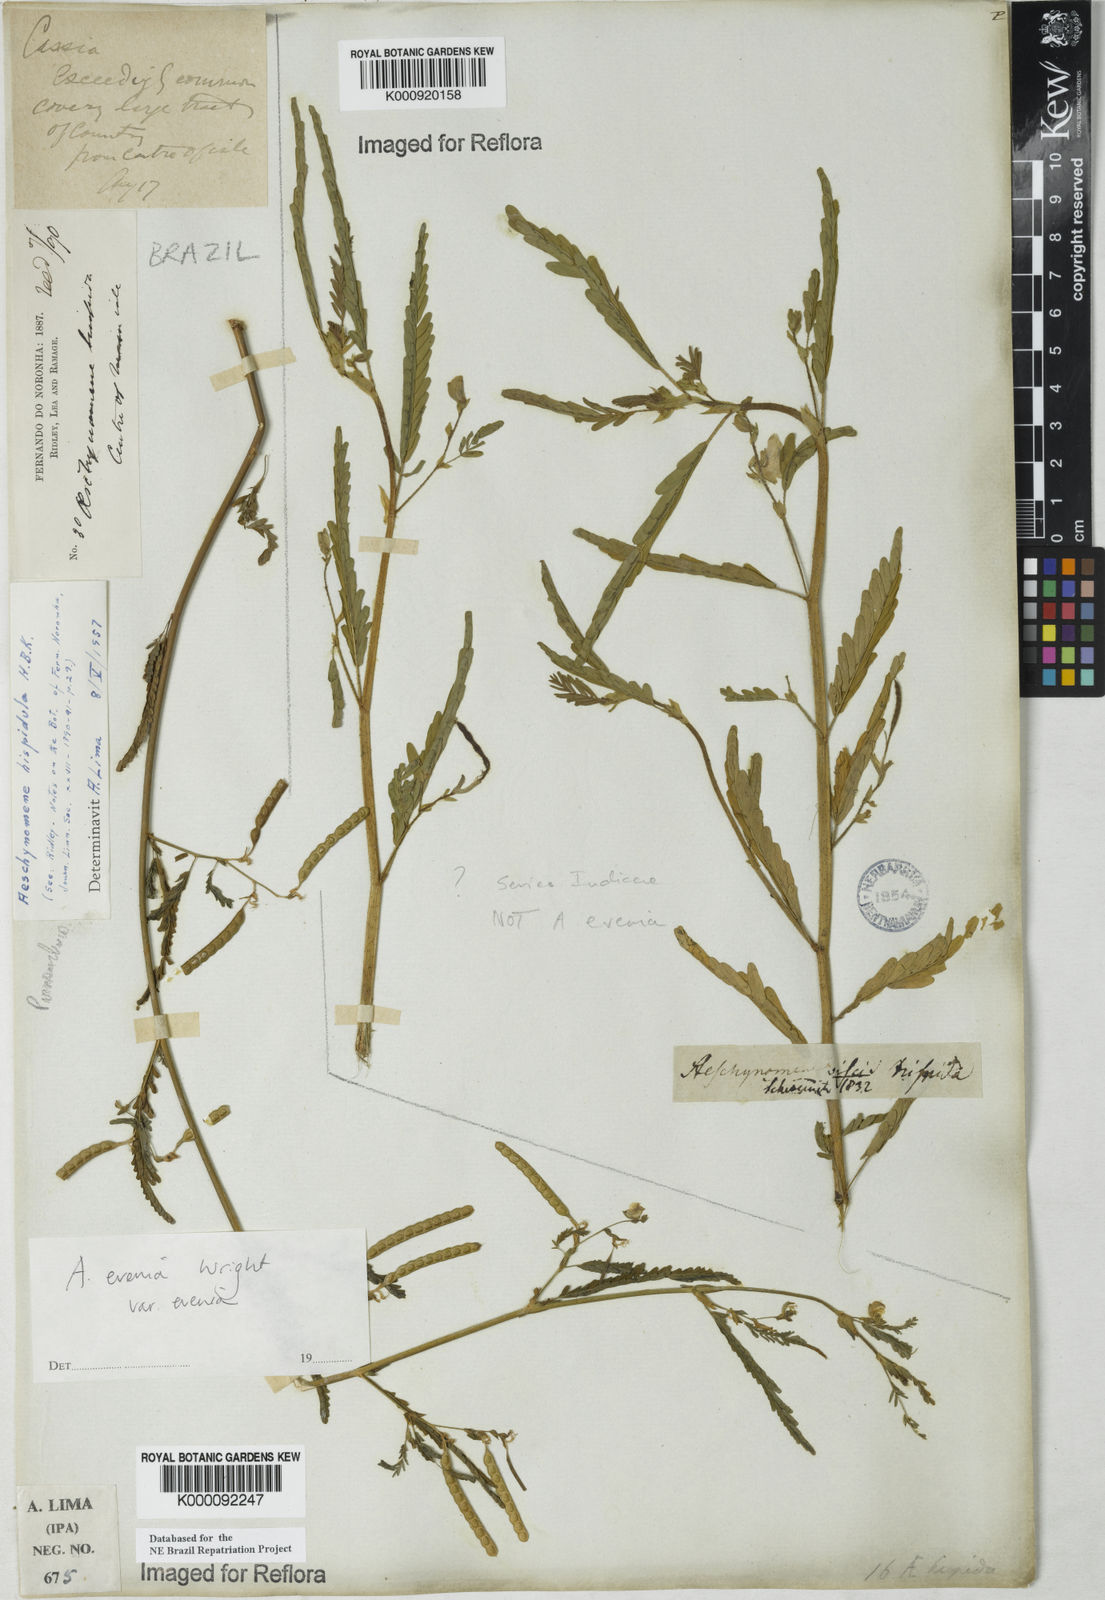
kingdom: Plantae
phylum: Tracheophyta
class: Magnoliopsida
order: Fabales
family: Fabaceae
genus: Aeschynomene
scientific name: Aeschynomene evenia
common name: Shrubby jointvetch
